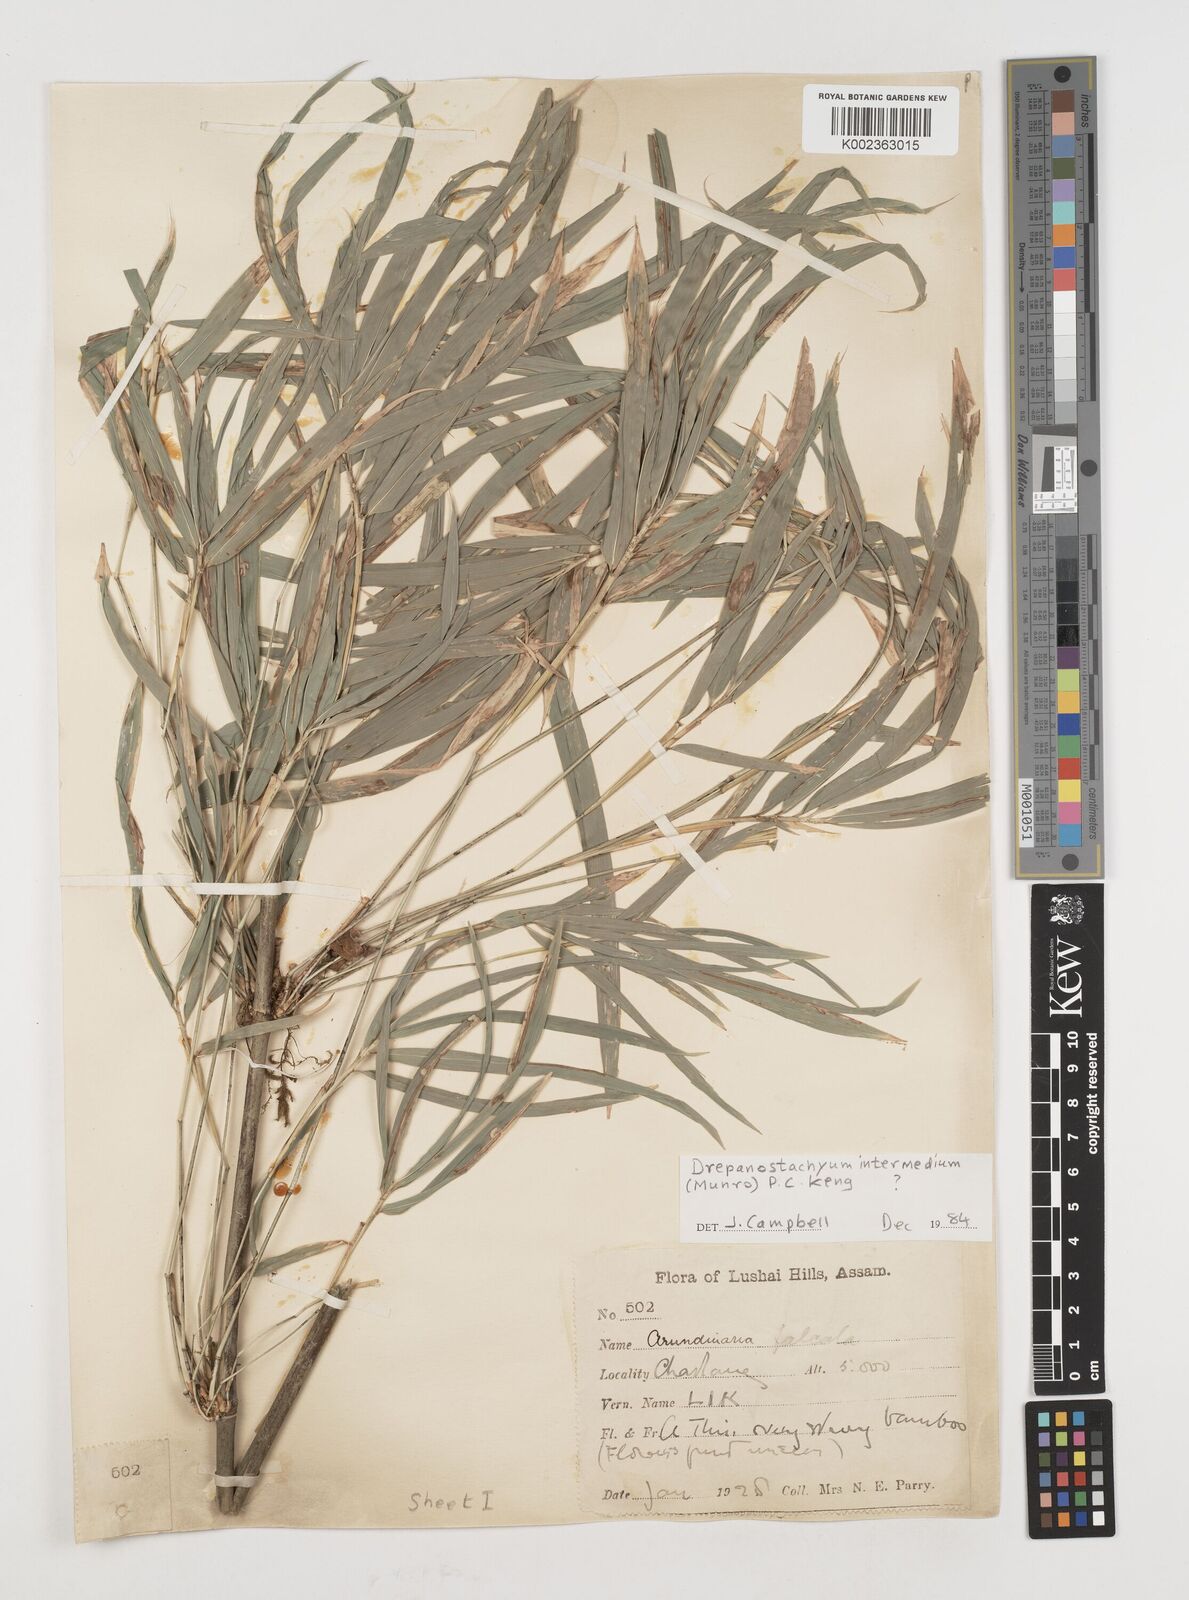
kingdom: Plantae
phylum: Tracheophyta
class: Liliopsida
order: Poales
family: Poaceae
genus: Drepanostachyum
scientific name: Drepanostachyum intermedium
